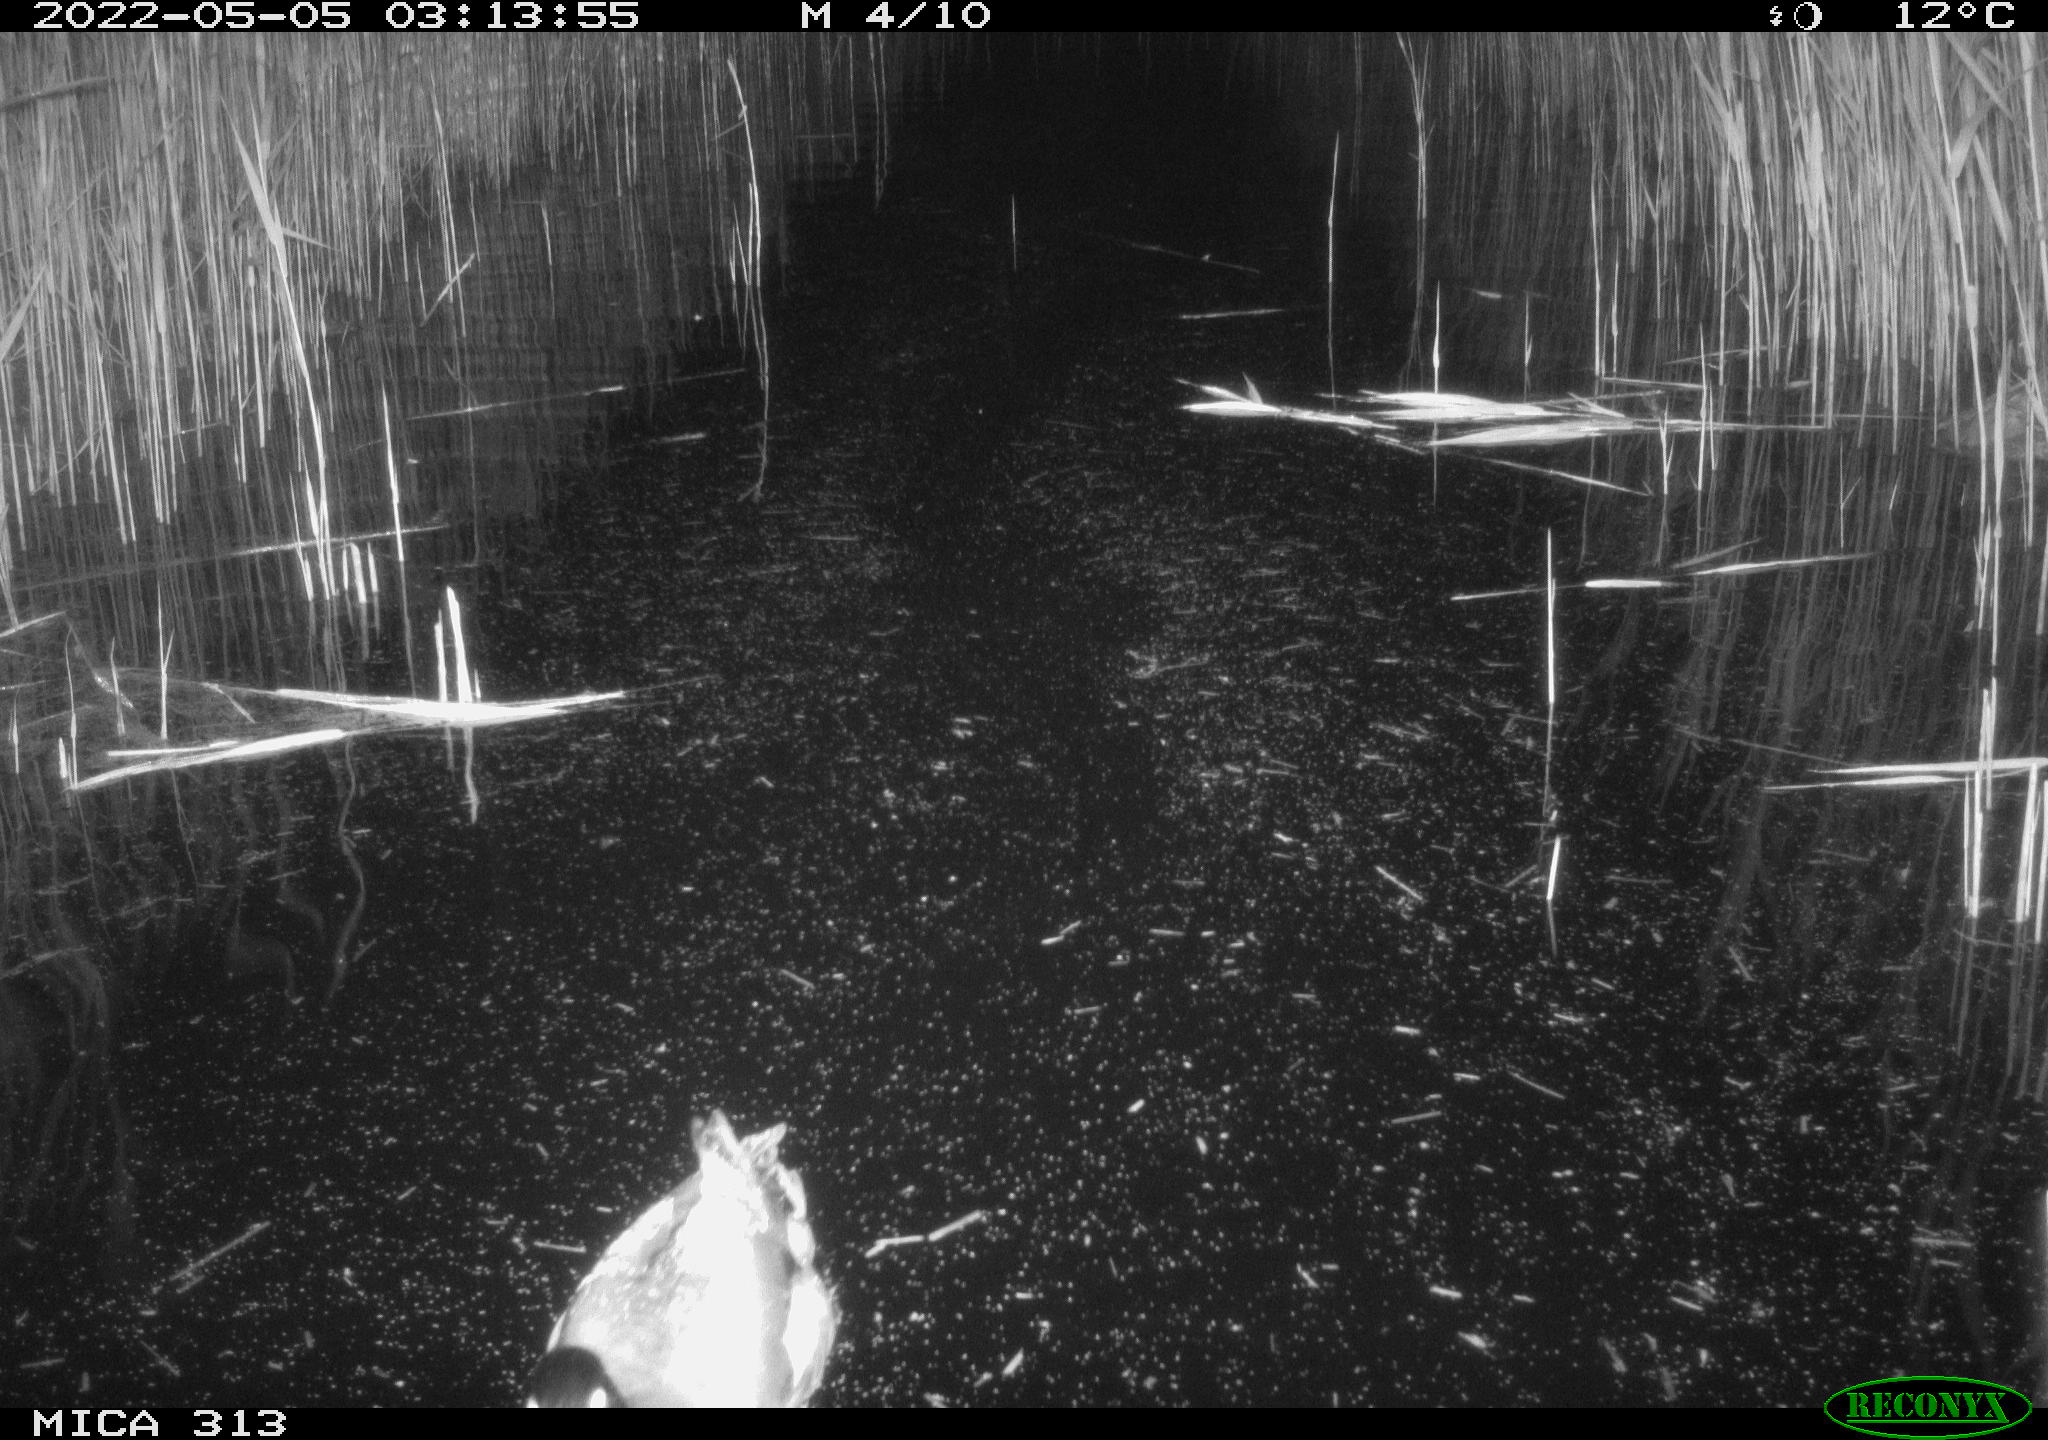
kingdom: Animalia
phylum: Chordata
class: Aves
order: Anseriformes
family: Anatidae
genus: Anas
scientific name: Anas platyrhynchos
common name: Mallard
